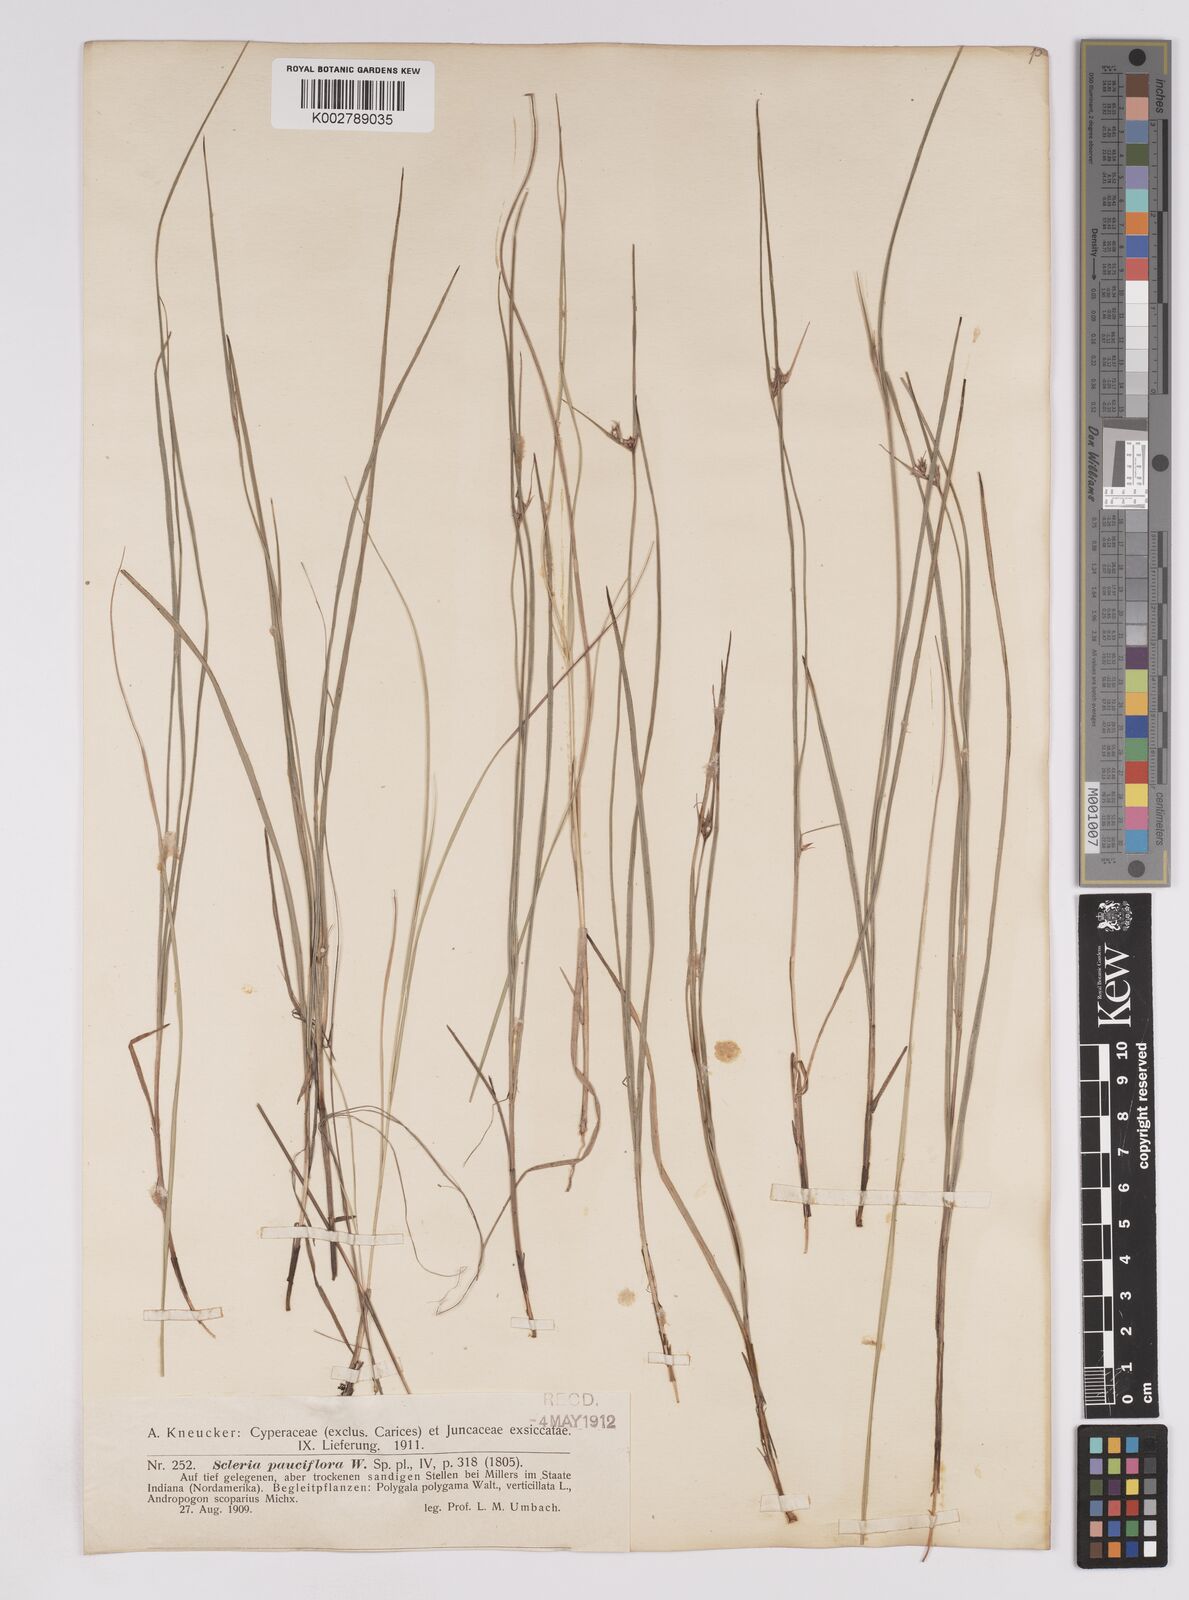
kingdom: Plantae
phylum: Tracheophyta
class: Liliopsida
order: Poales
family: Cyperaceae
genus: Scleria
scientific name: Scleria pauciflora
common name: Few-flowered nutrush
